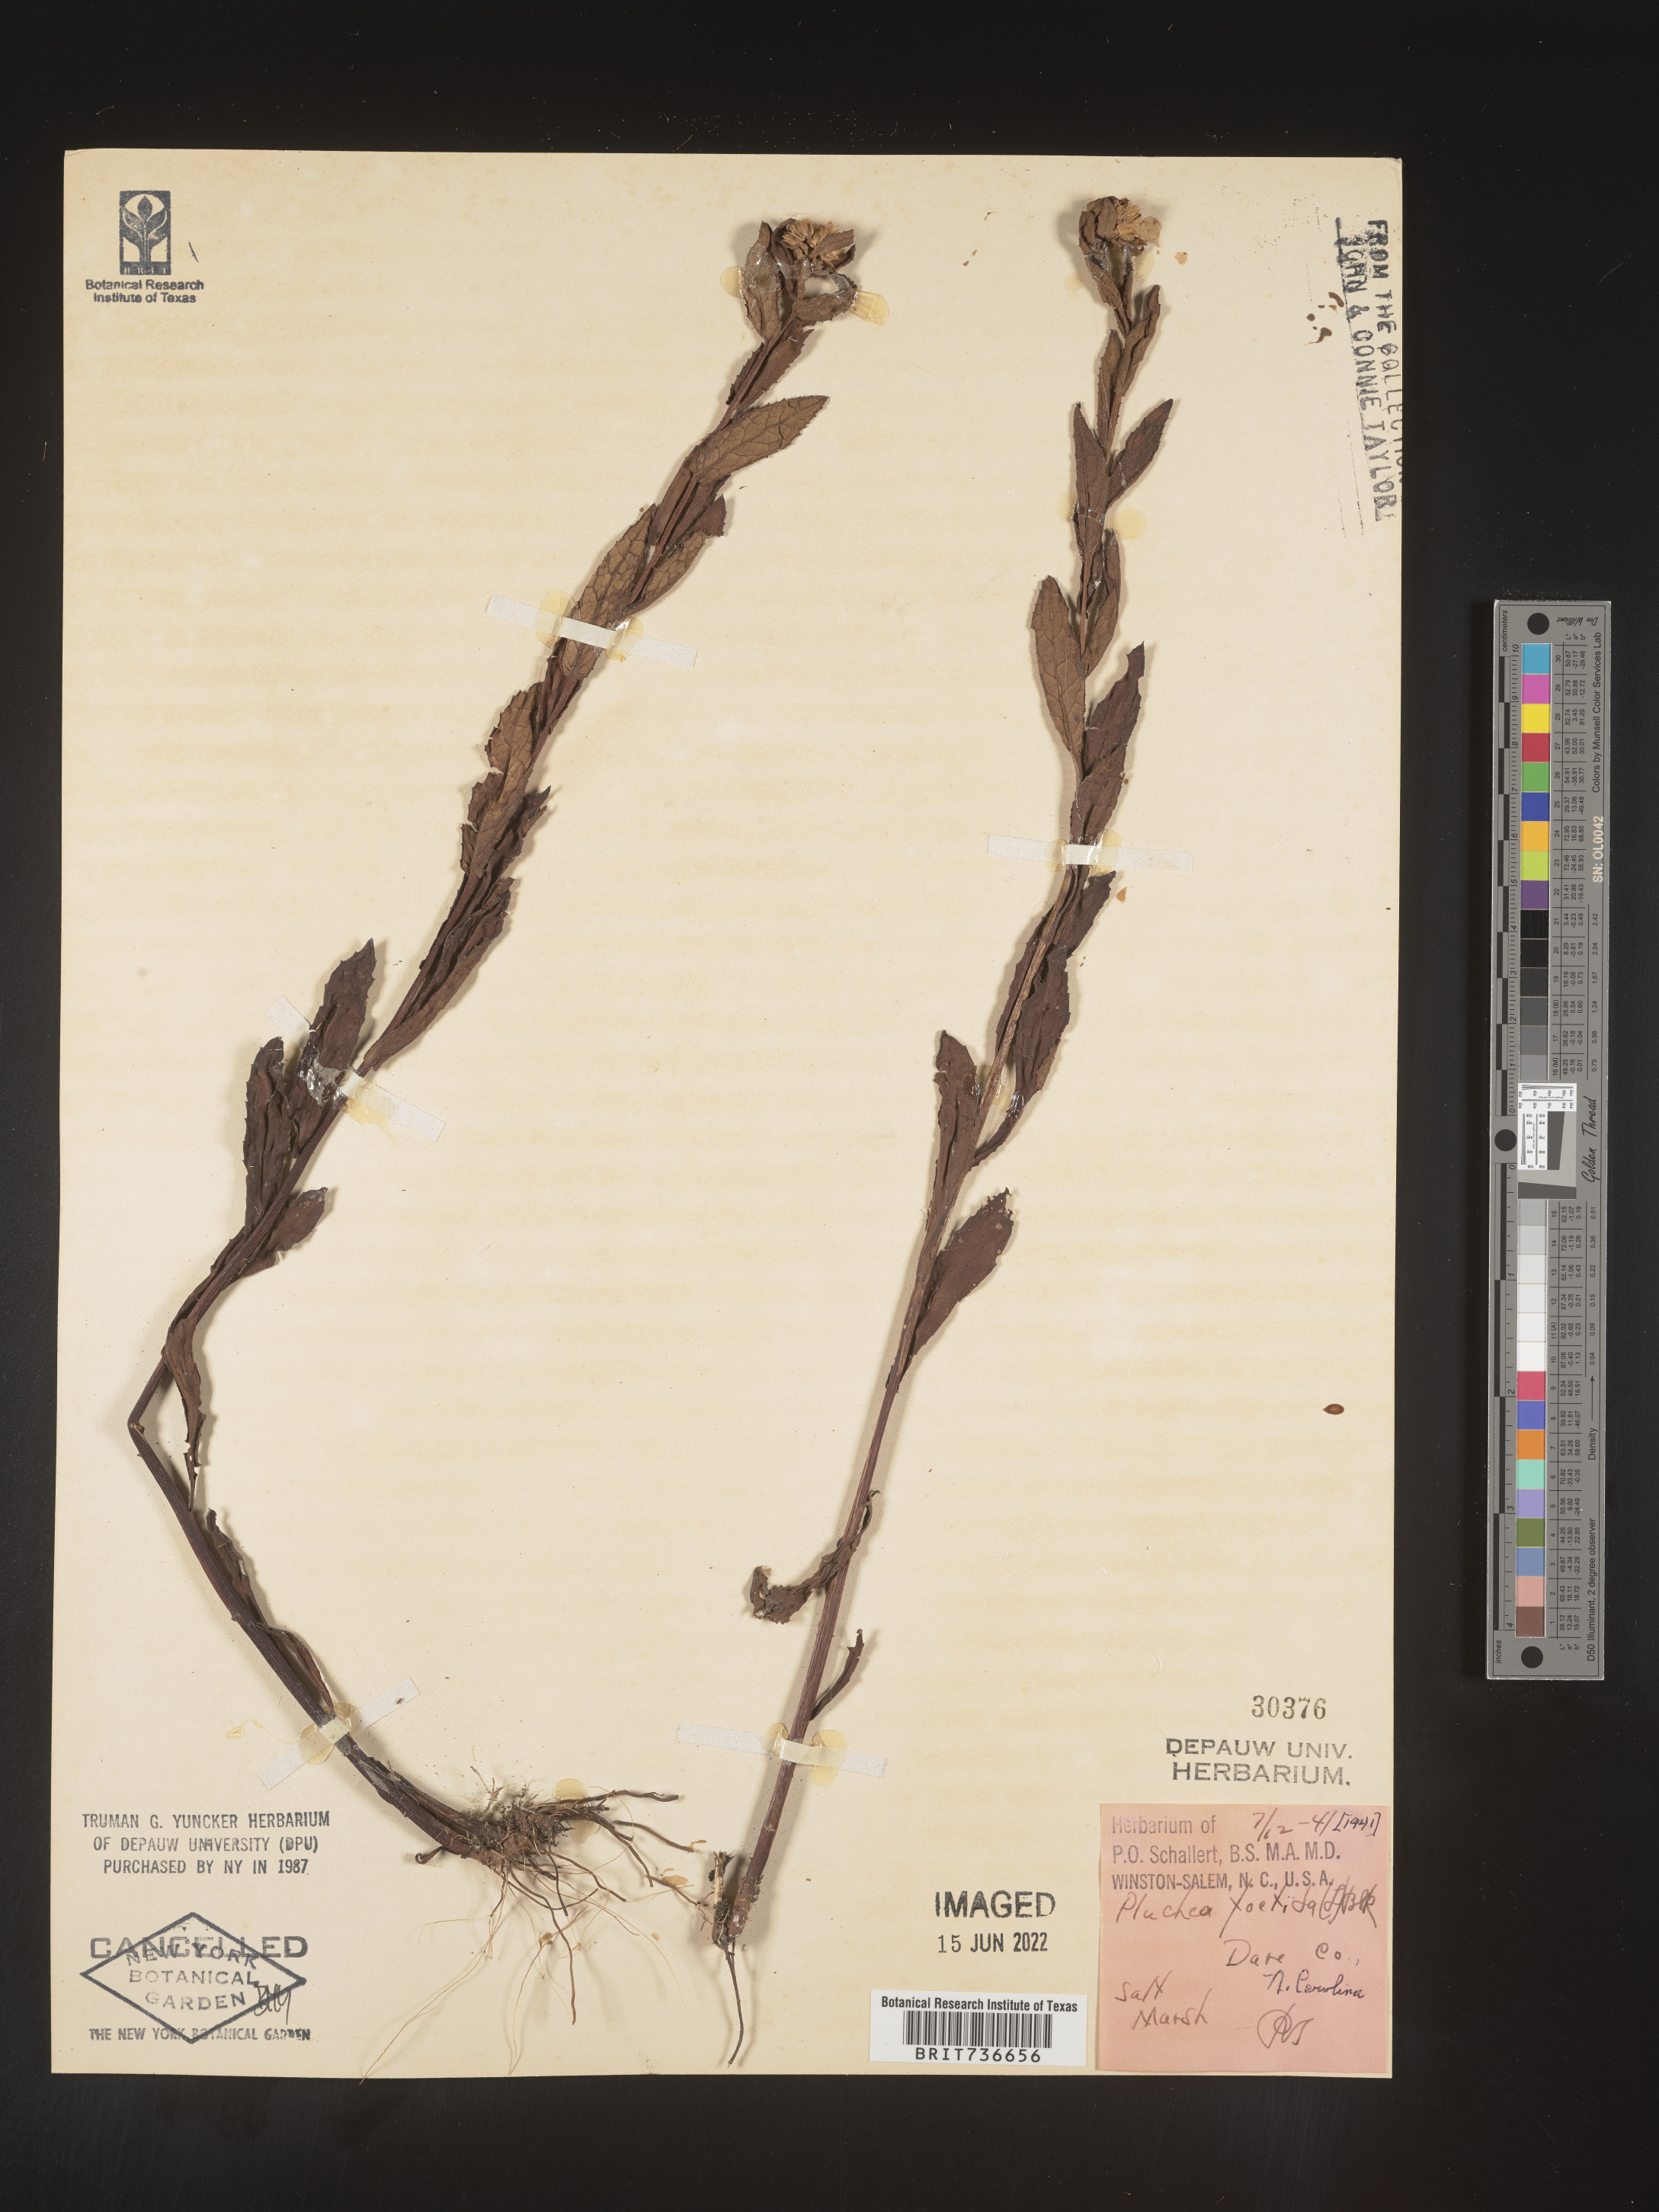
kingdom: Plantae
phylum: Tracheophyta
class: Magnoliopsida
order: Asterales
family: Asteraceae
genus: Pluchea
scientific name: Pluchea foetida
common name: Stinking camphorweed
